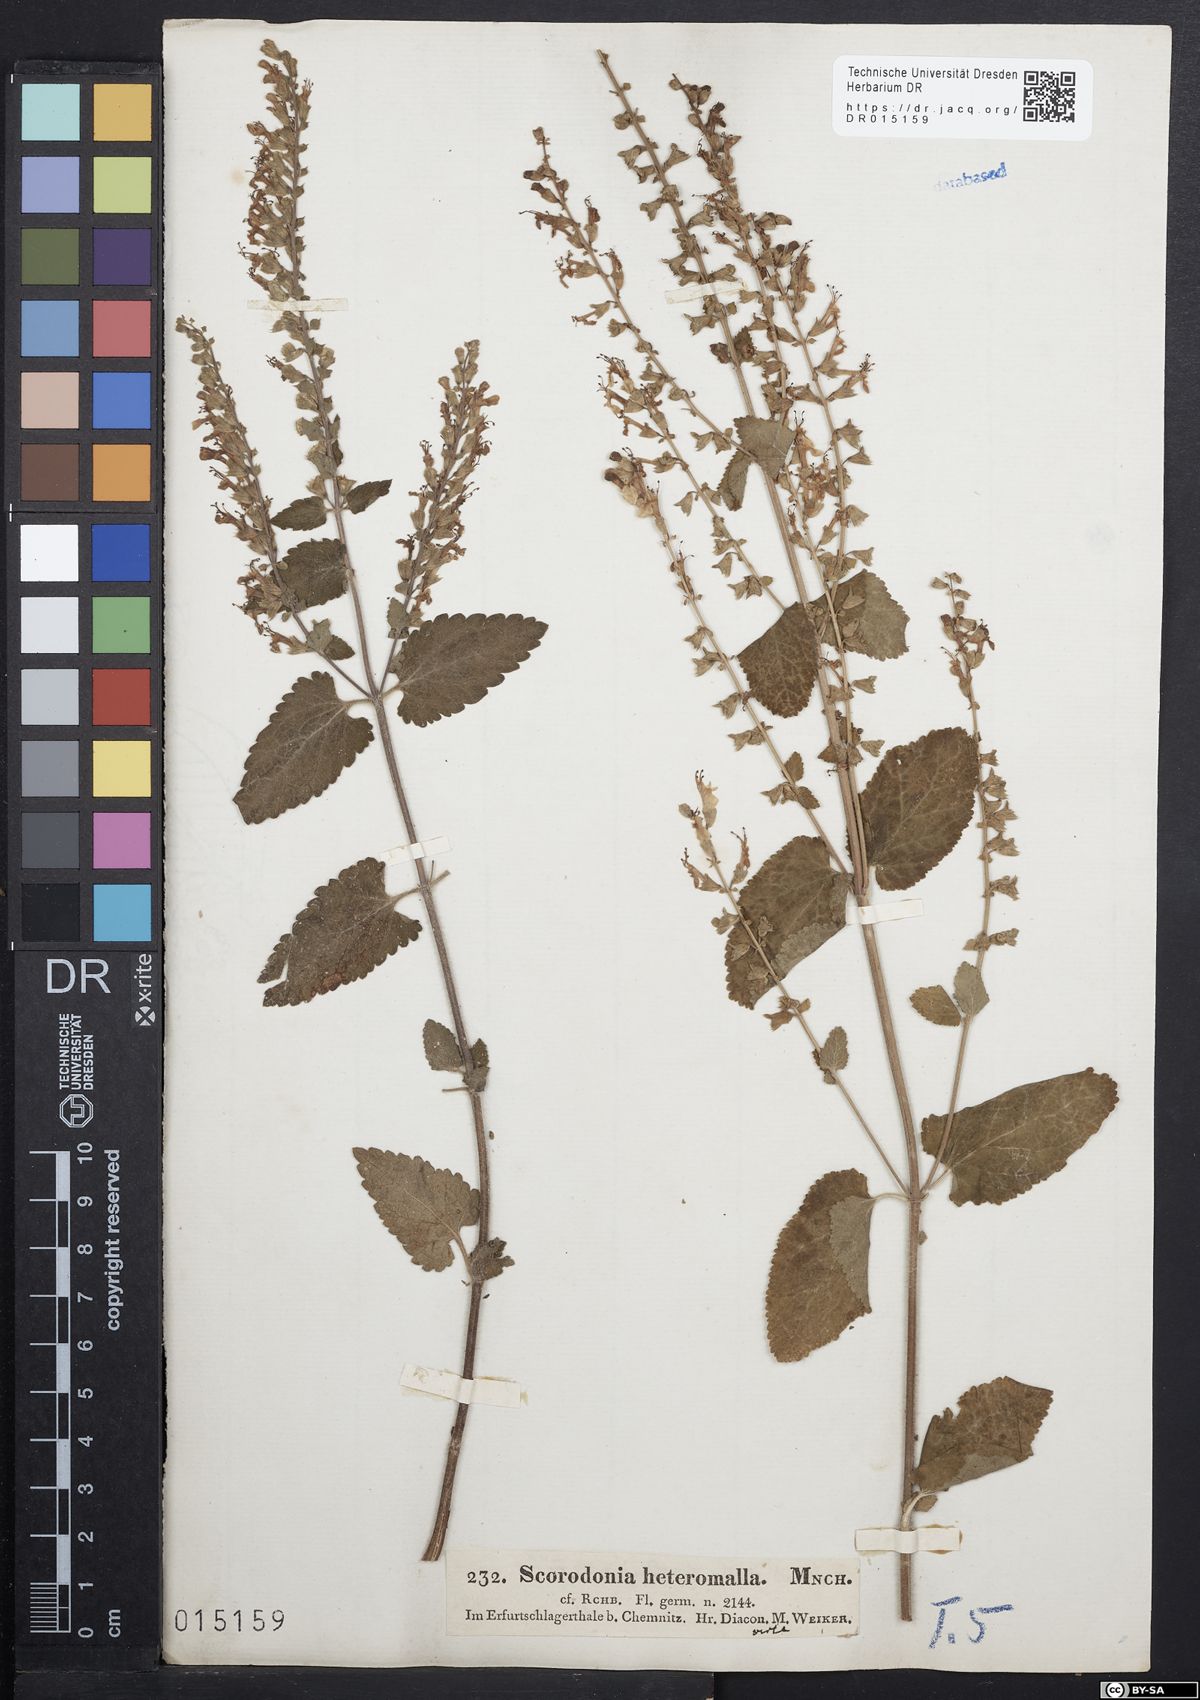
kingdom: Plantae
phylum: Tracheophyta
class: Magnoliopsida
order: Lamiales
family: Lamiaceae
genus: Teucrium
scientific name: Teucrium scorodonia
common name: Woodland germander
